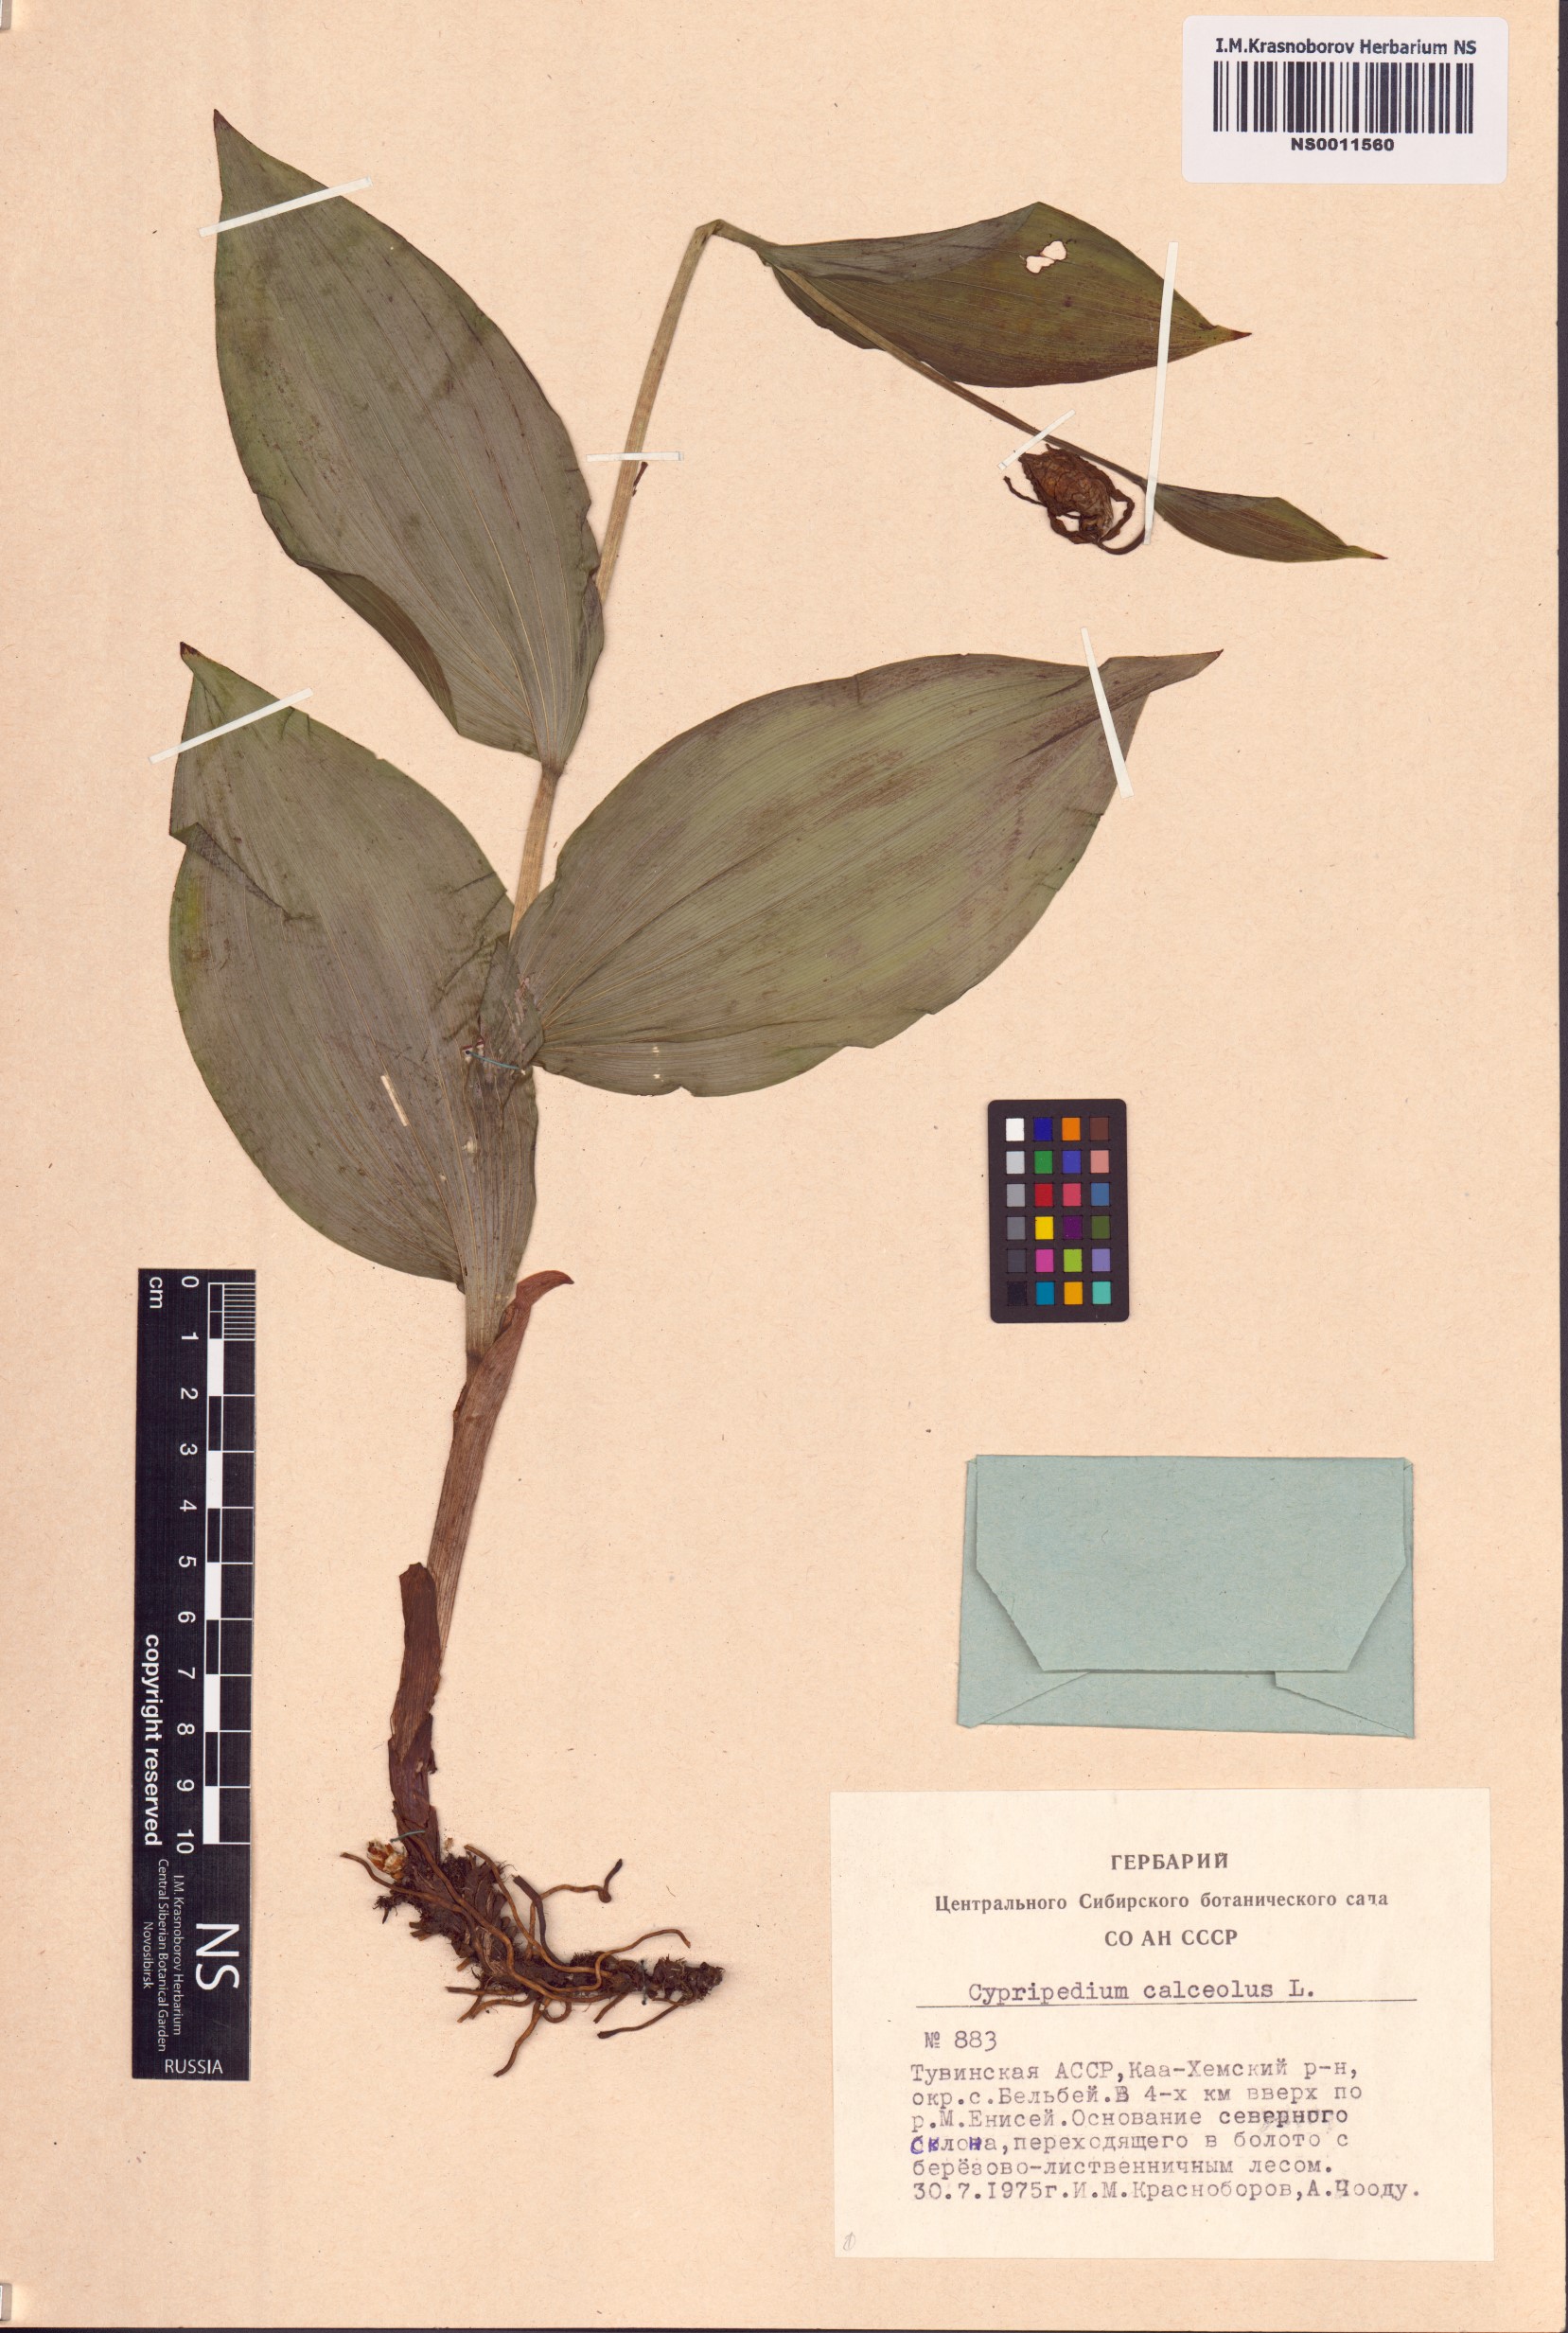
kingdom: Plantae
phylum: Tracheophyta
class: Liliopsida
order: Asparagales
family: Orchidaceae
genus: Cypripedium
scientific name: Cypripedium calceolus
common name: Lady's-slipper
